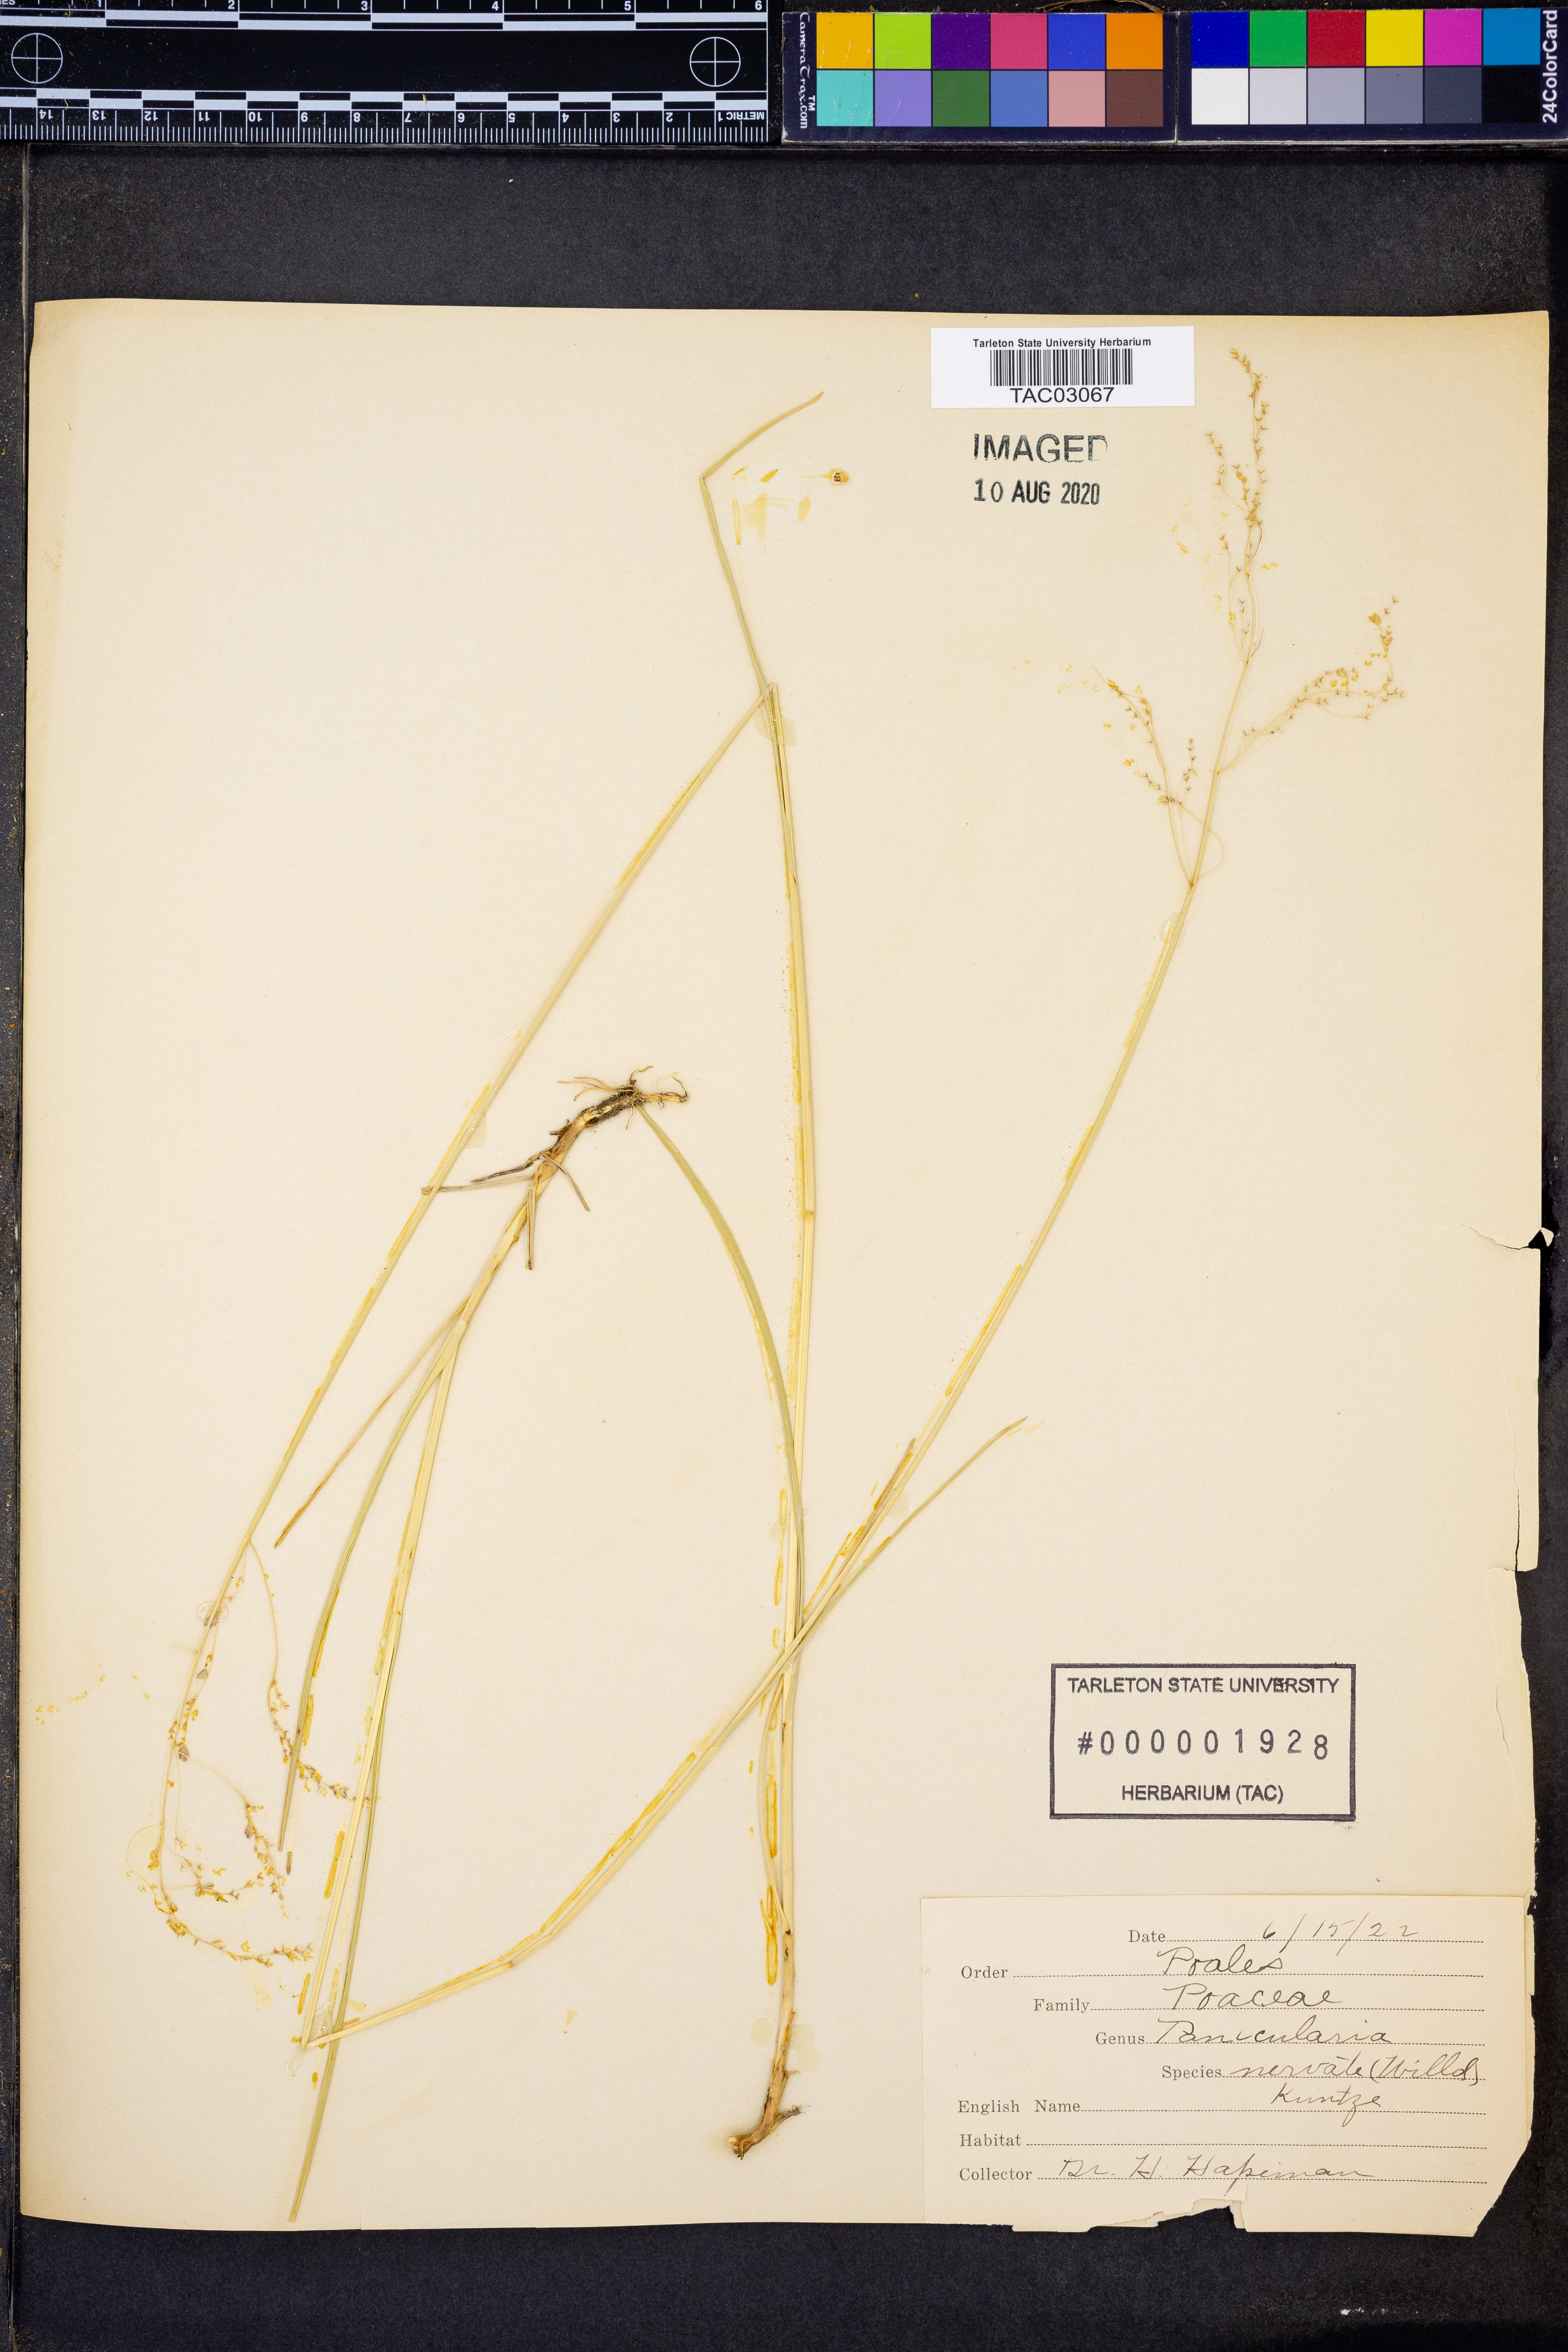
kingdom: Plantae
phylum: Tracheophyta
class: Liliopsida
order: Poales
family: Poaceae
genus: Glyceria
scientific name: Glyceria striata
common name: Fowl manna grass
